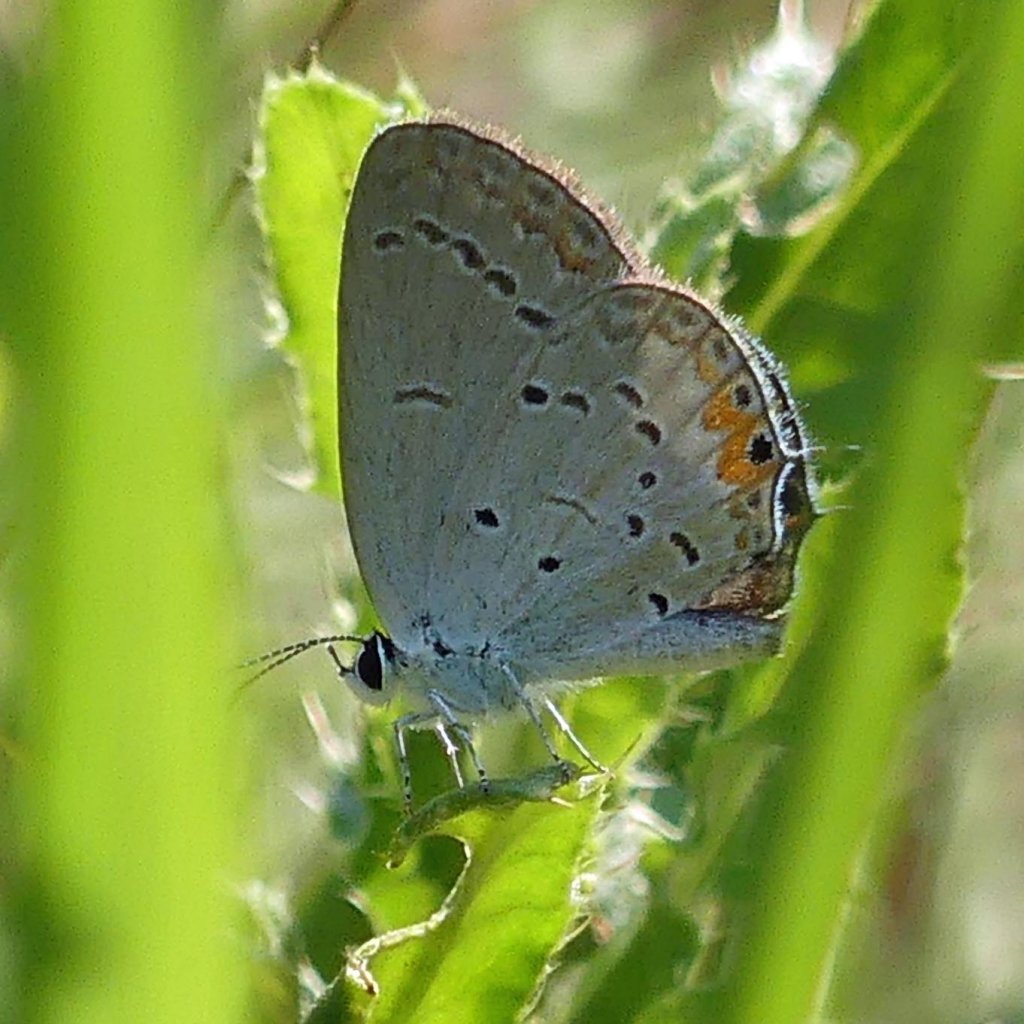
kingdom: Animalia
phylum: Arthropoda
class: Insecta
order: Lepidoptera
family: Lycaenidae
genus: Elkalyce
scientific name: Elkalyce comyntas
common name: Eastern Tailed-Blue
